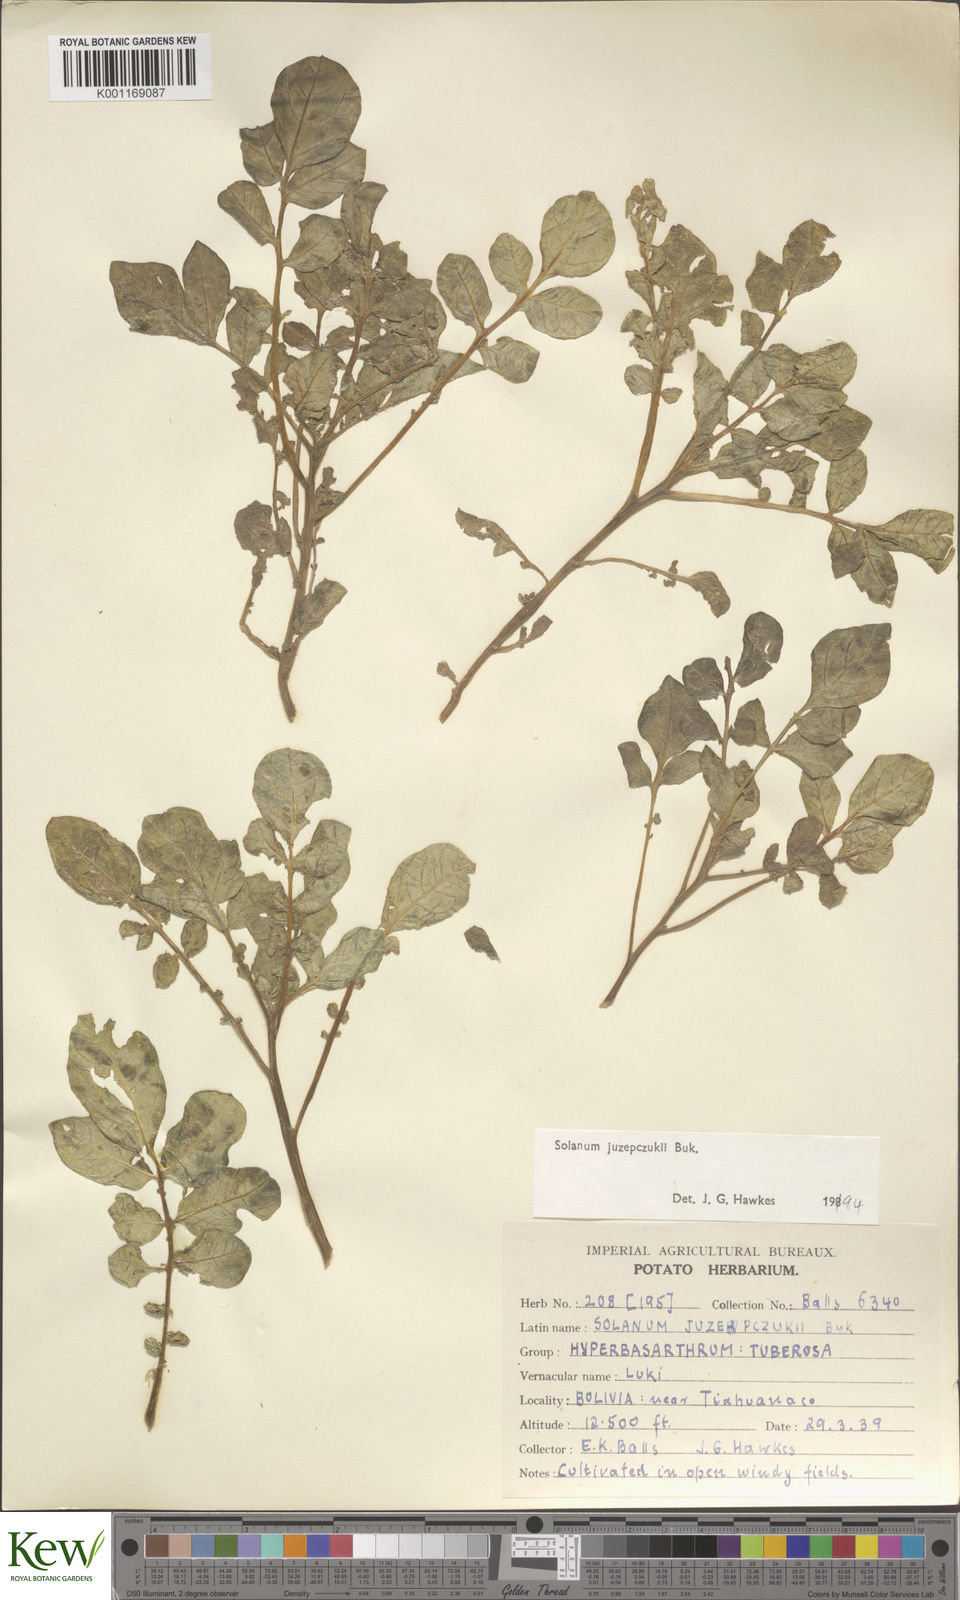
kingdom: Plantae
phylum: Tracheophyta
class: Magnoliopsida
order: Solanales
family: Solanaceae
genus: Solanum
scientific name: Solanum juzepczukii
